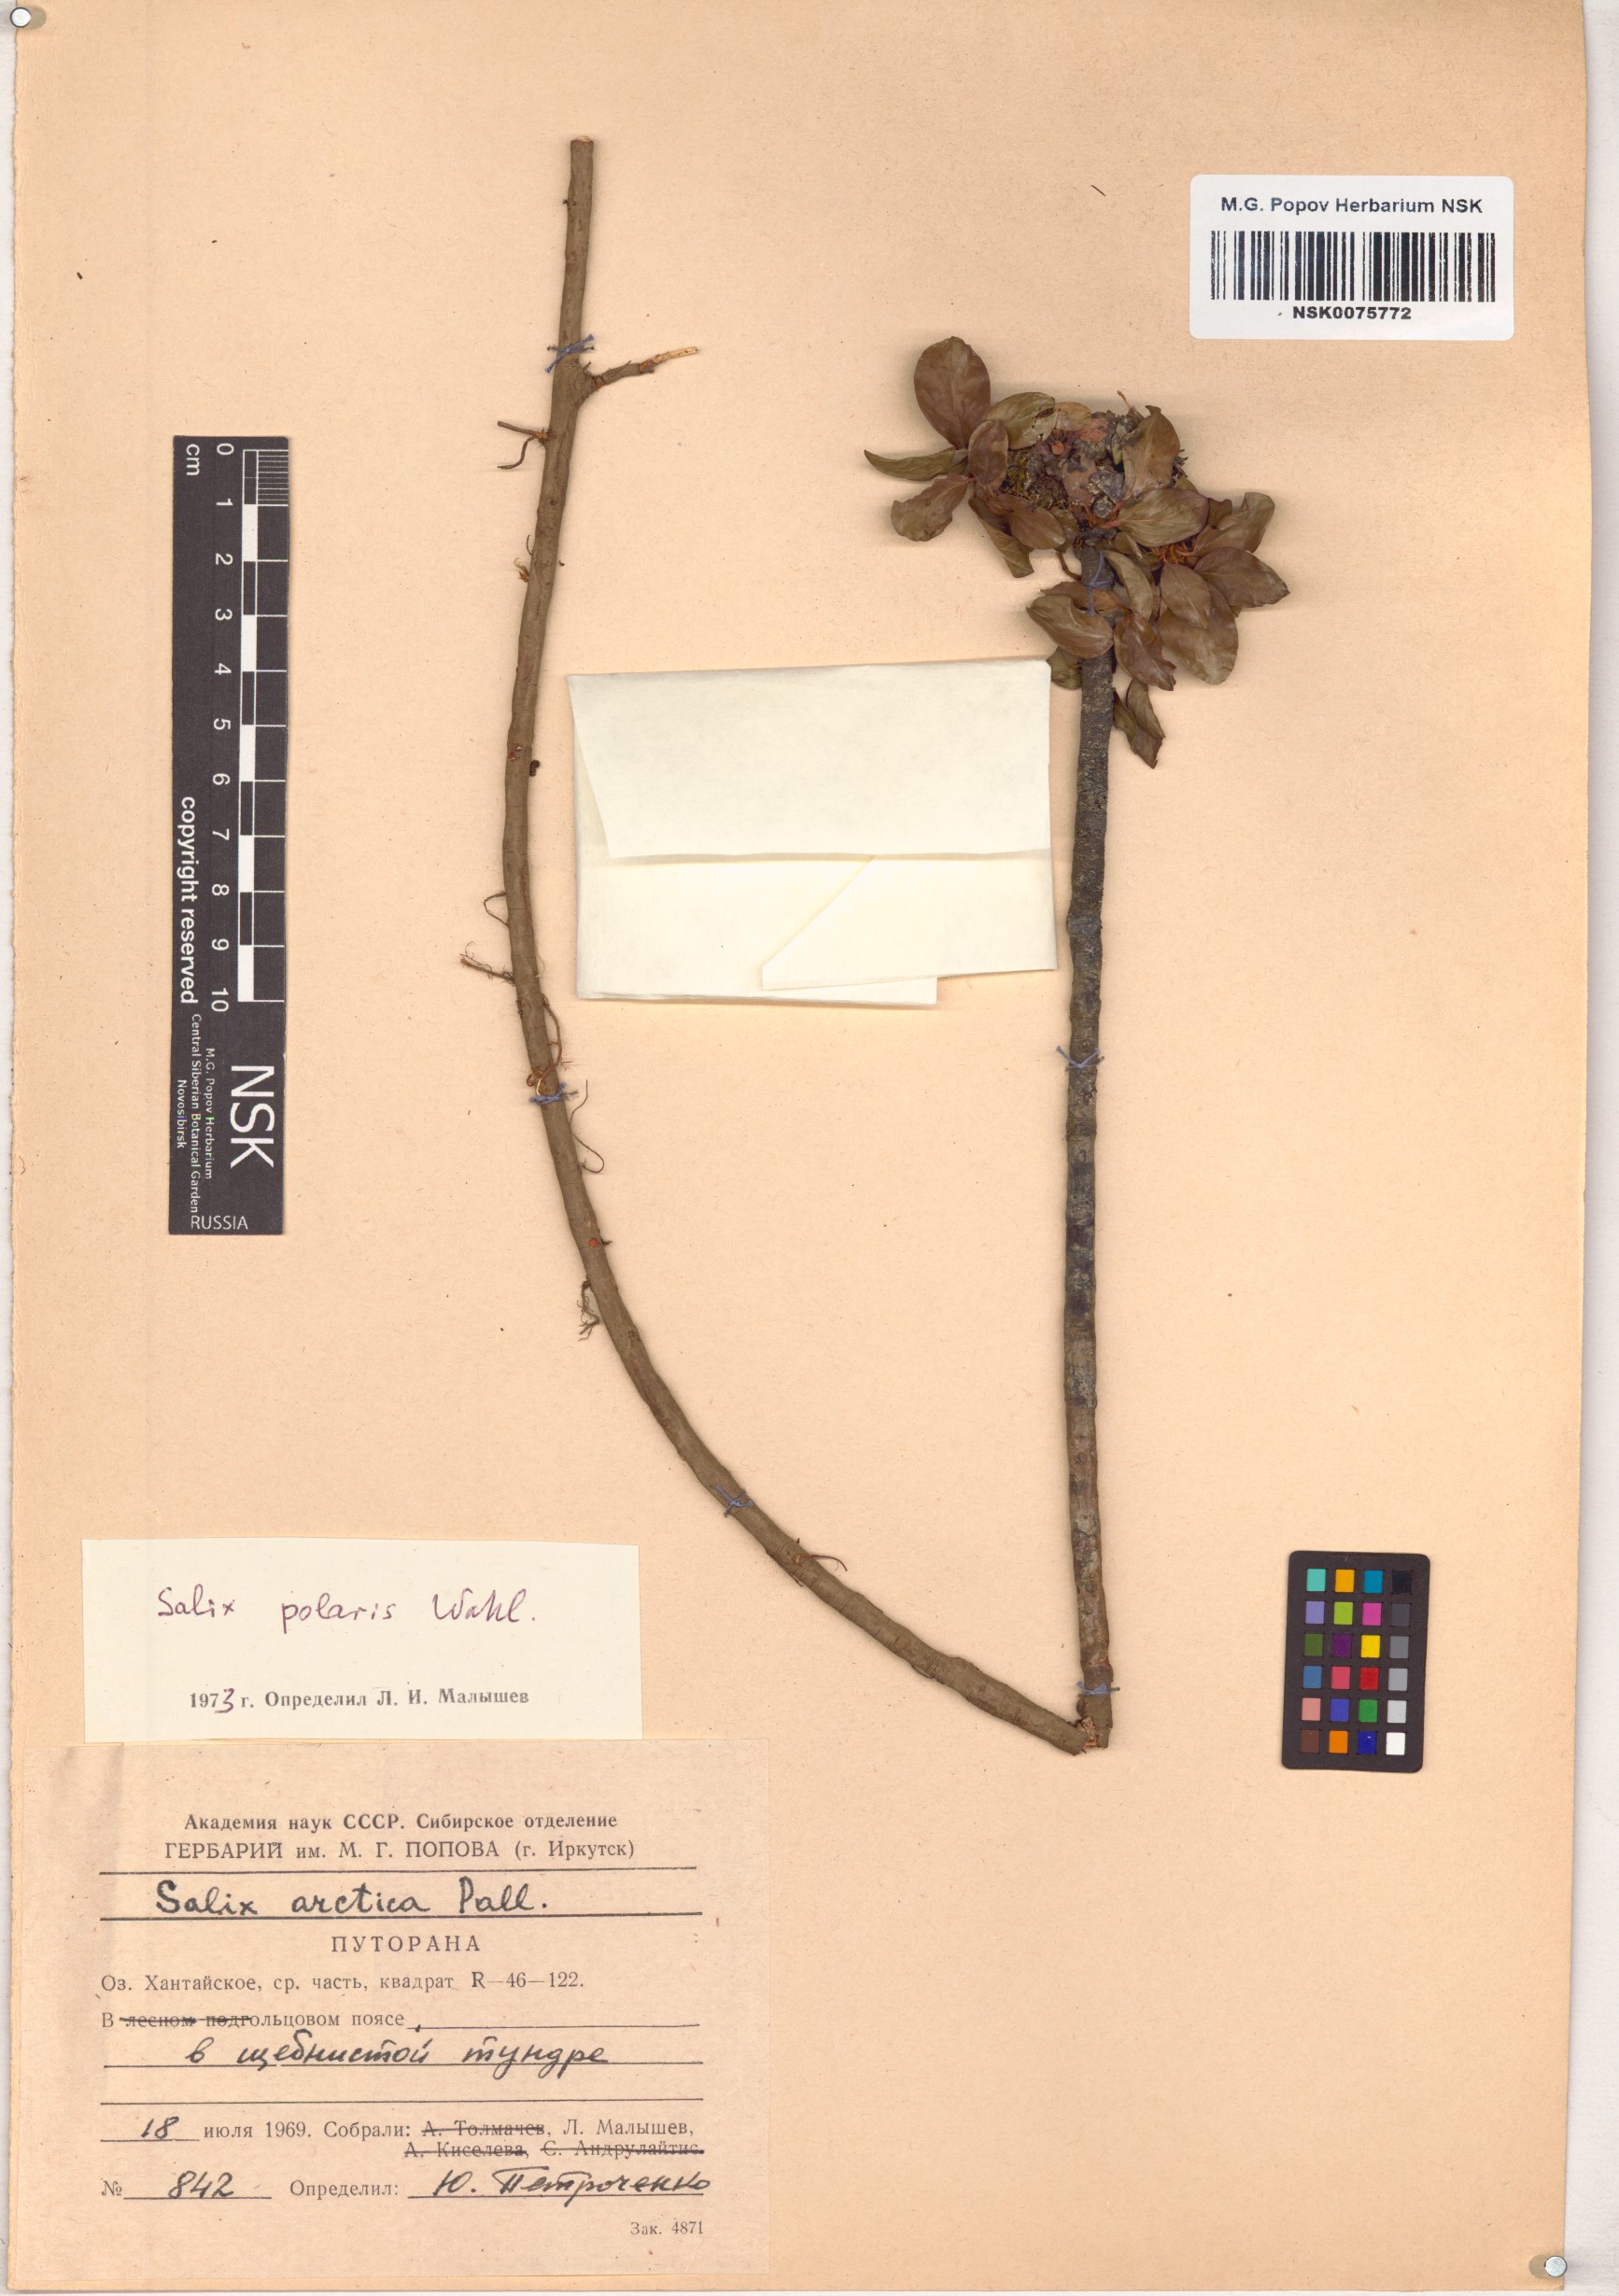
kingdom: Plantae
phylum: Tracheophyta
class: Magnoliopsida
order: Malpighiales
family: Salicaceae
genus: Salix
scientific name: Salix polaris
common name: Polar willow
